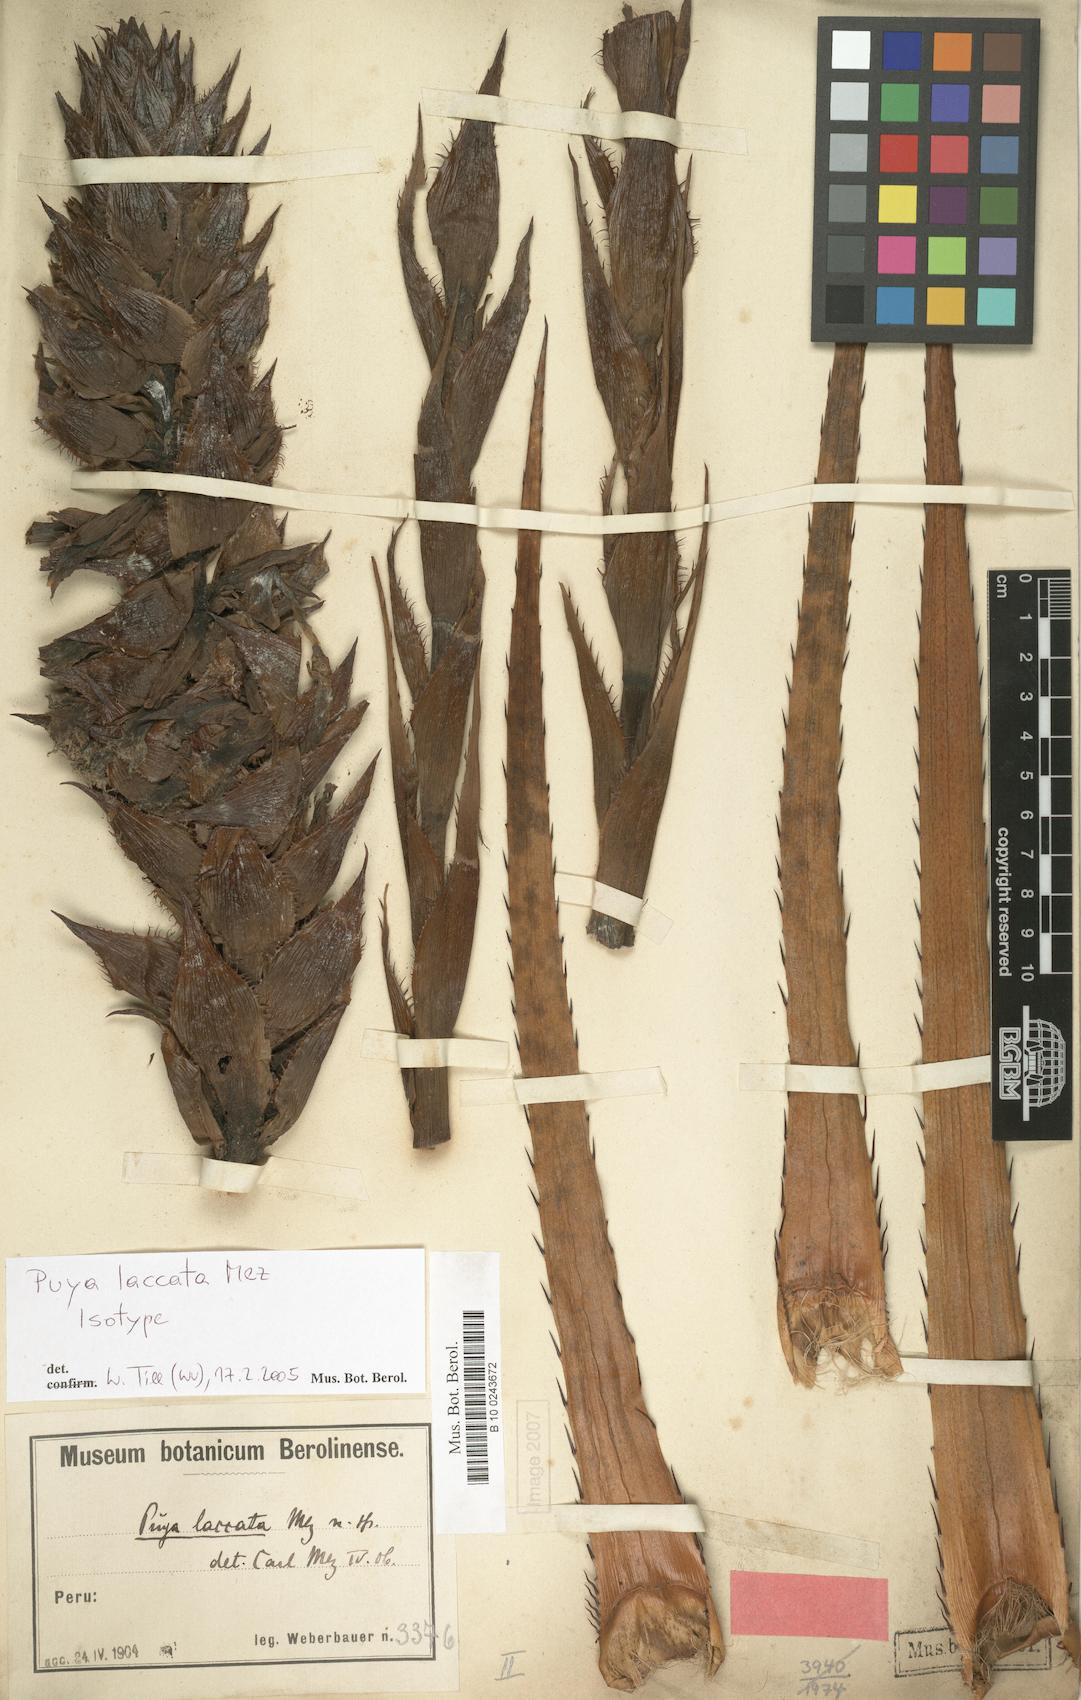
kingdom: Plantae
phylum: Tracheophyta
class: Liliopsida
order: Poales
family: Bromeliaceae
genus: Puya
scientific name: Puya laccata
